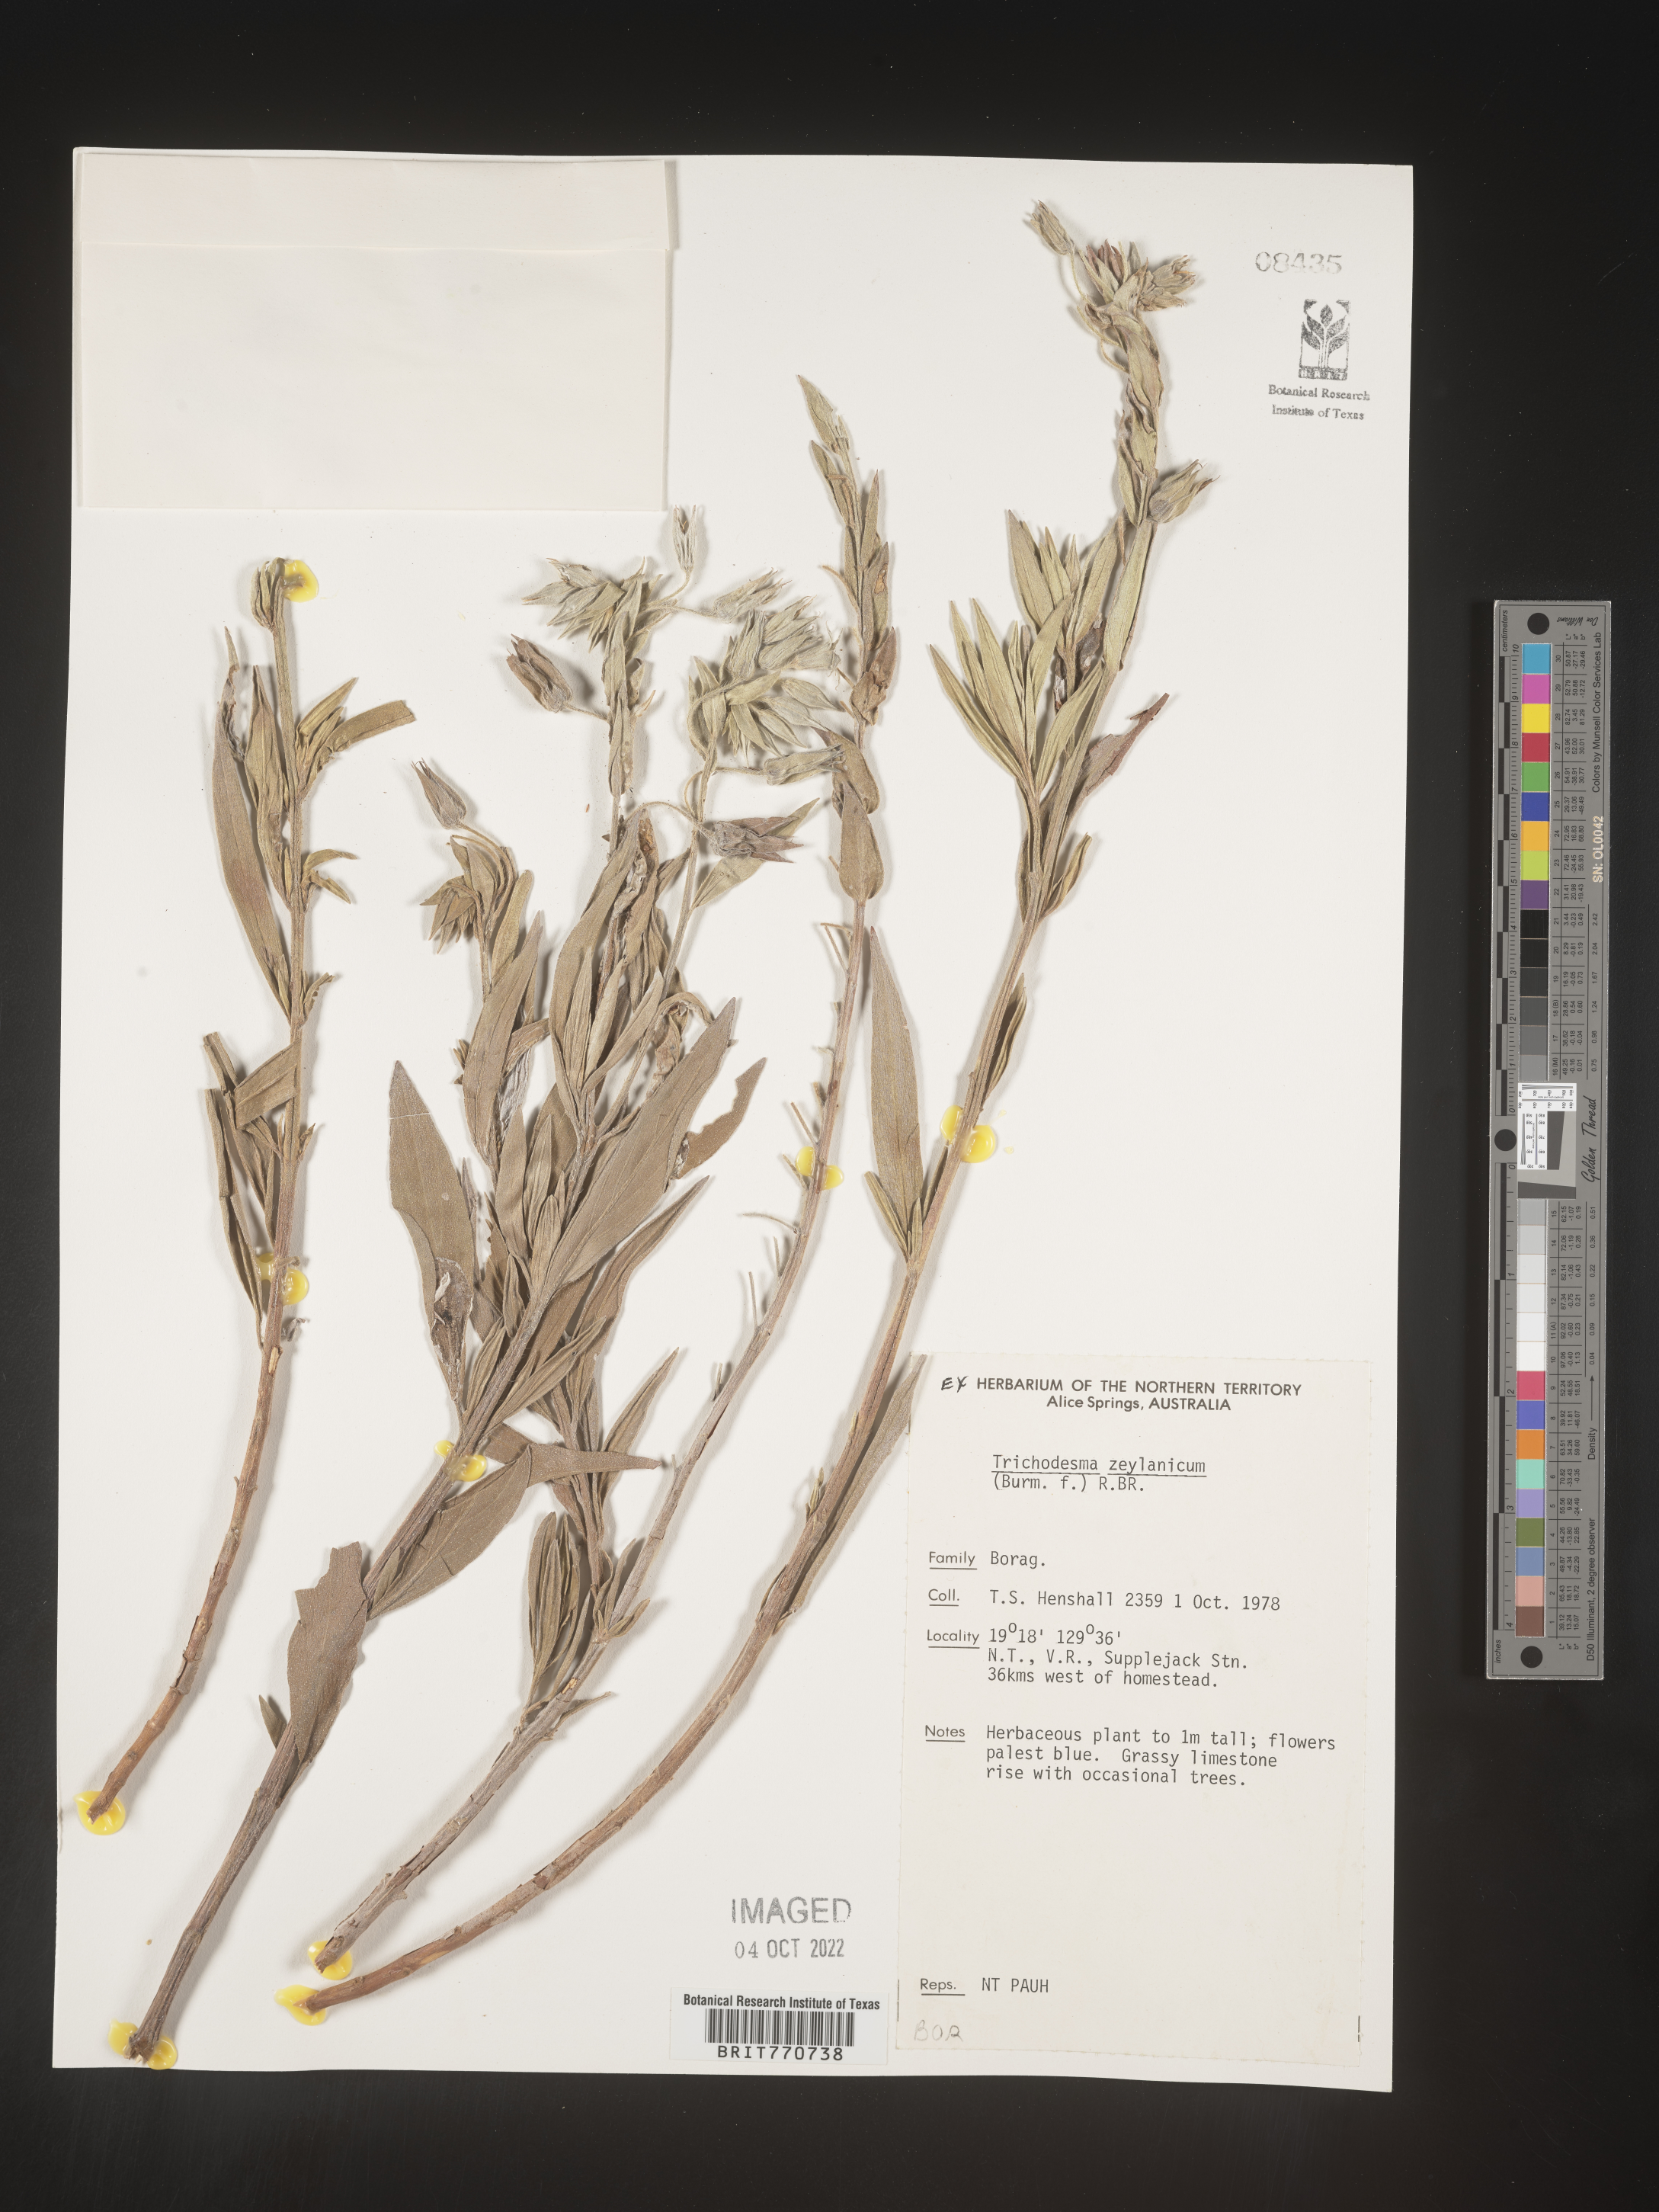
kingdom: Plantae
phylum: Tracheophyta
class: Magnoliopsida
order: Boraginales
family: Boraginaceae
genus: Trichodesma
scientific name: Trichodesma
